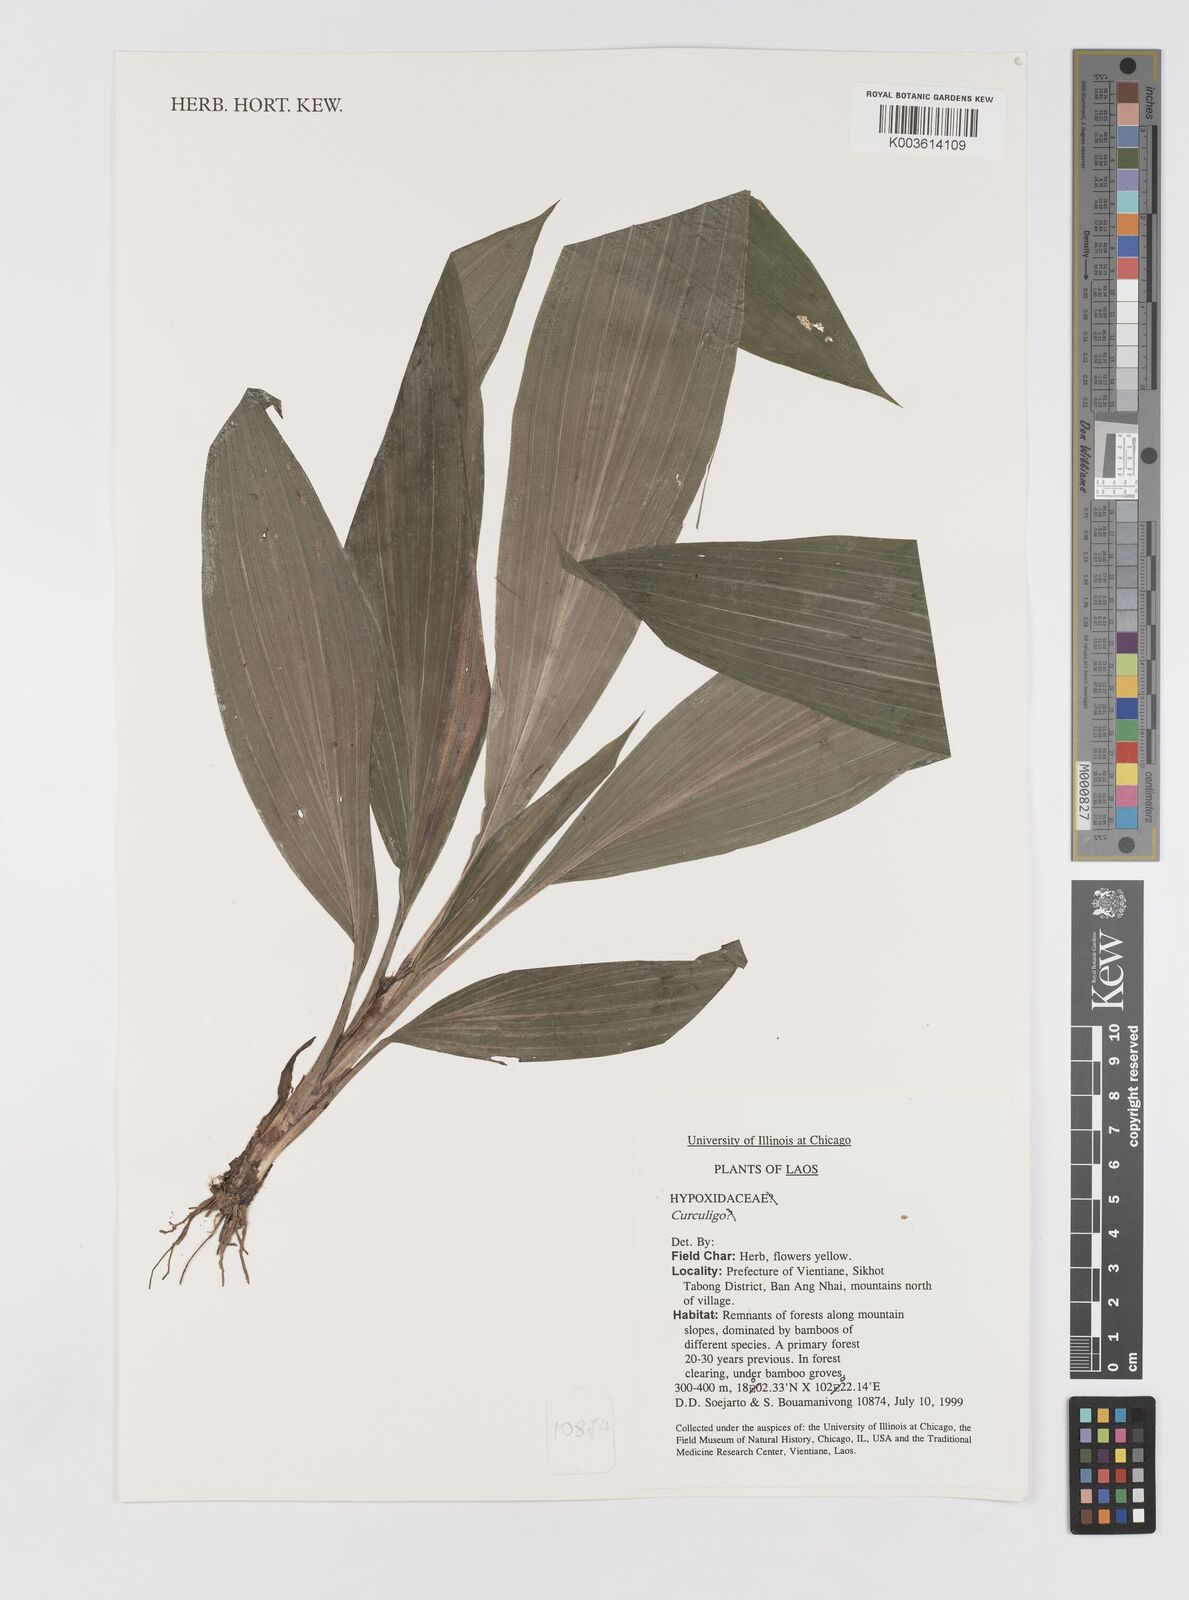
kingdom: Plantae
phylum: Tracheophyta
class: Liliopsida
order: Asparagales
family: Hypoxidaceae
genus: Curculigo
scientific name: Curculigo
